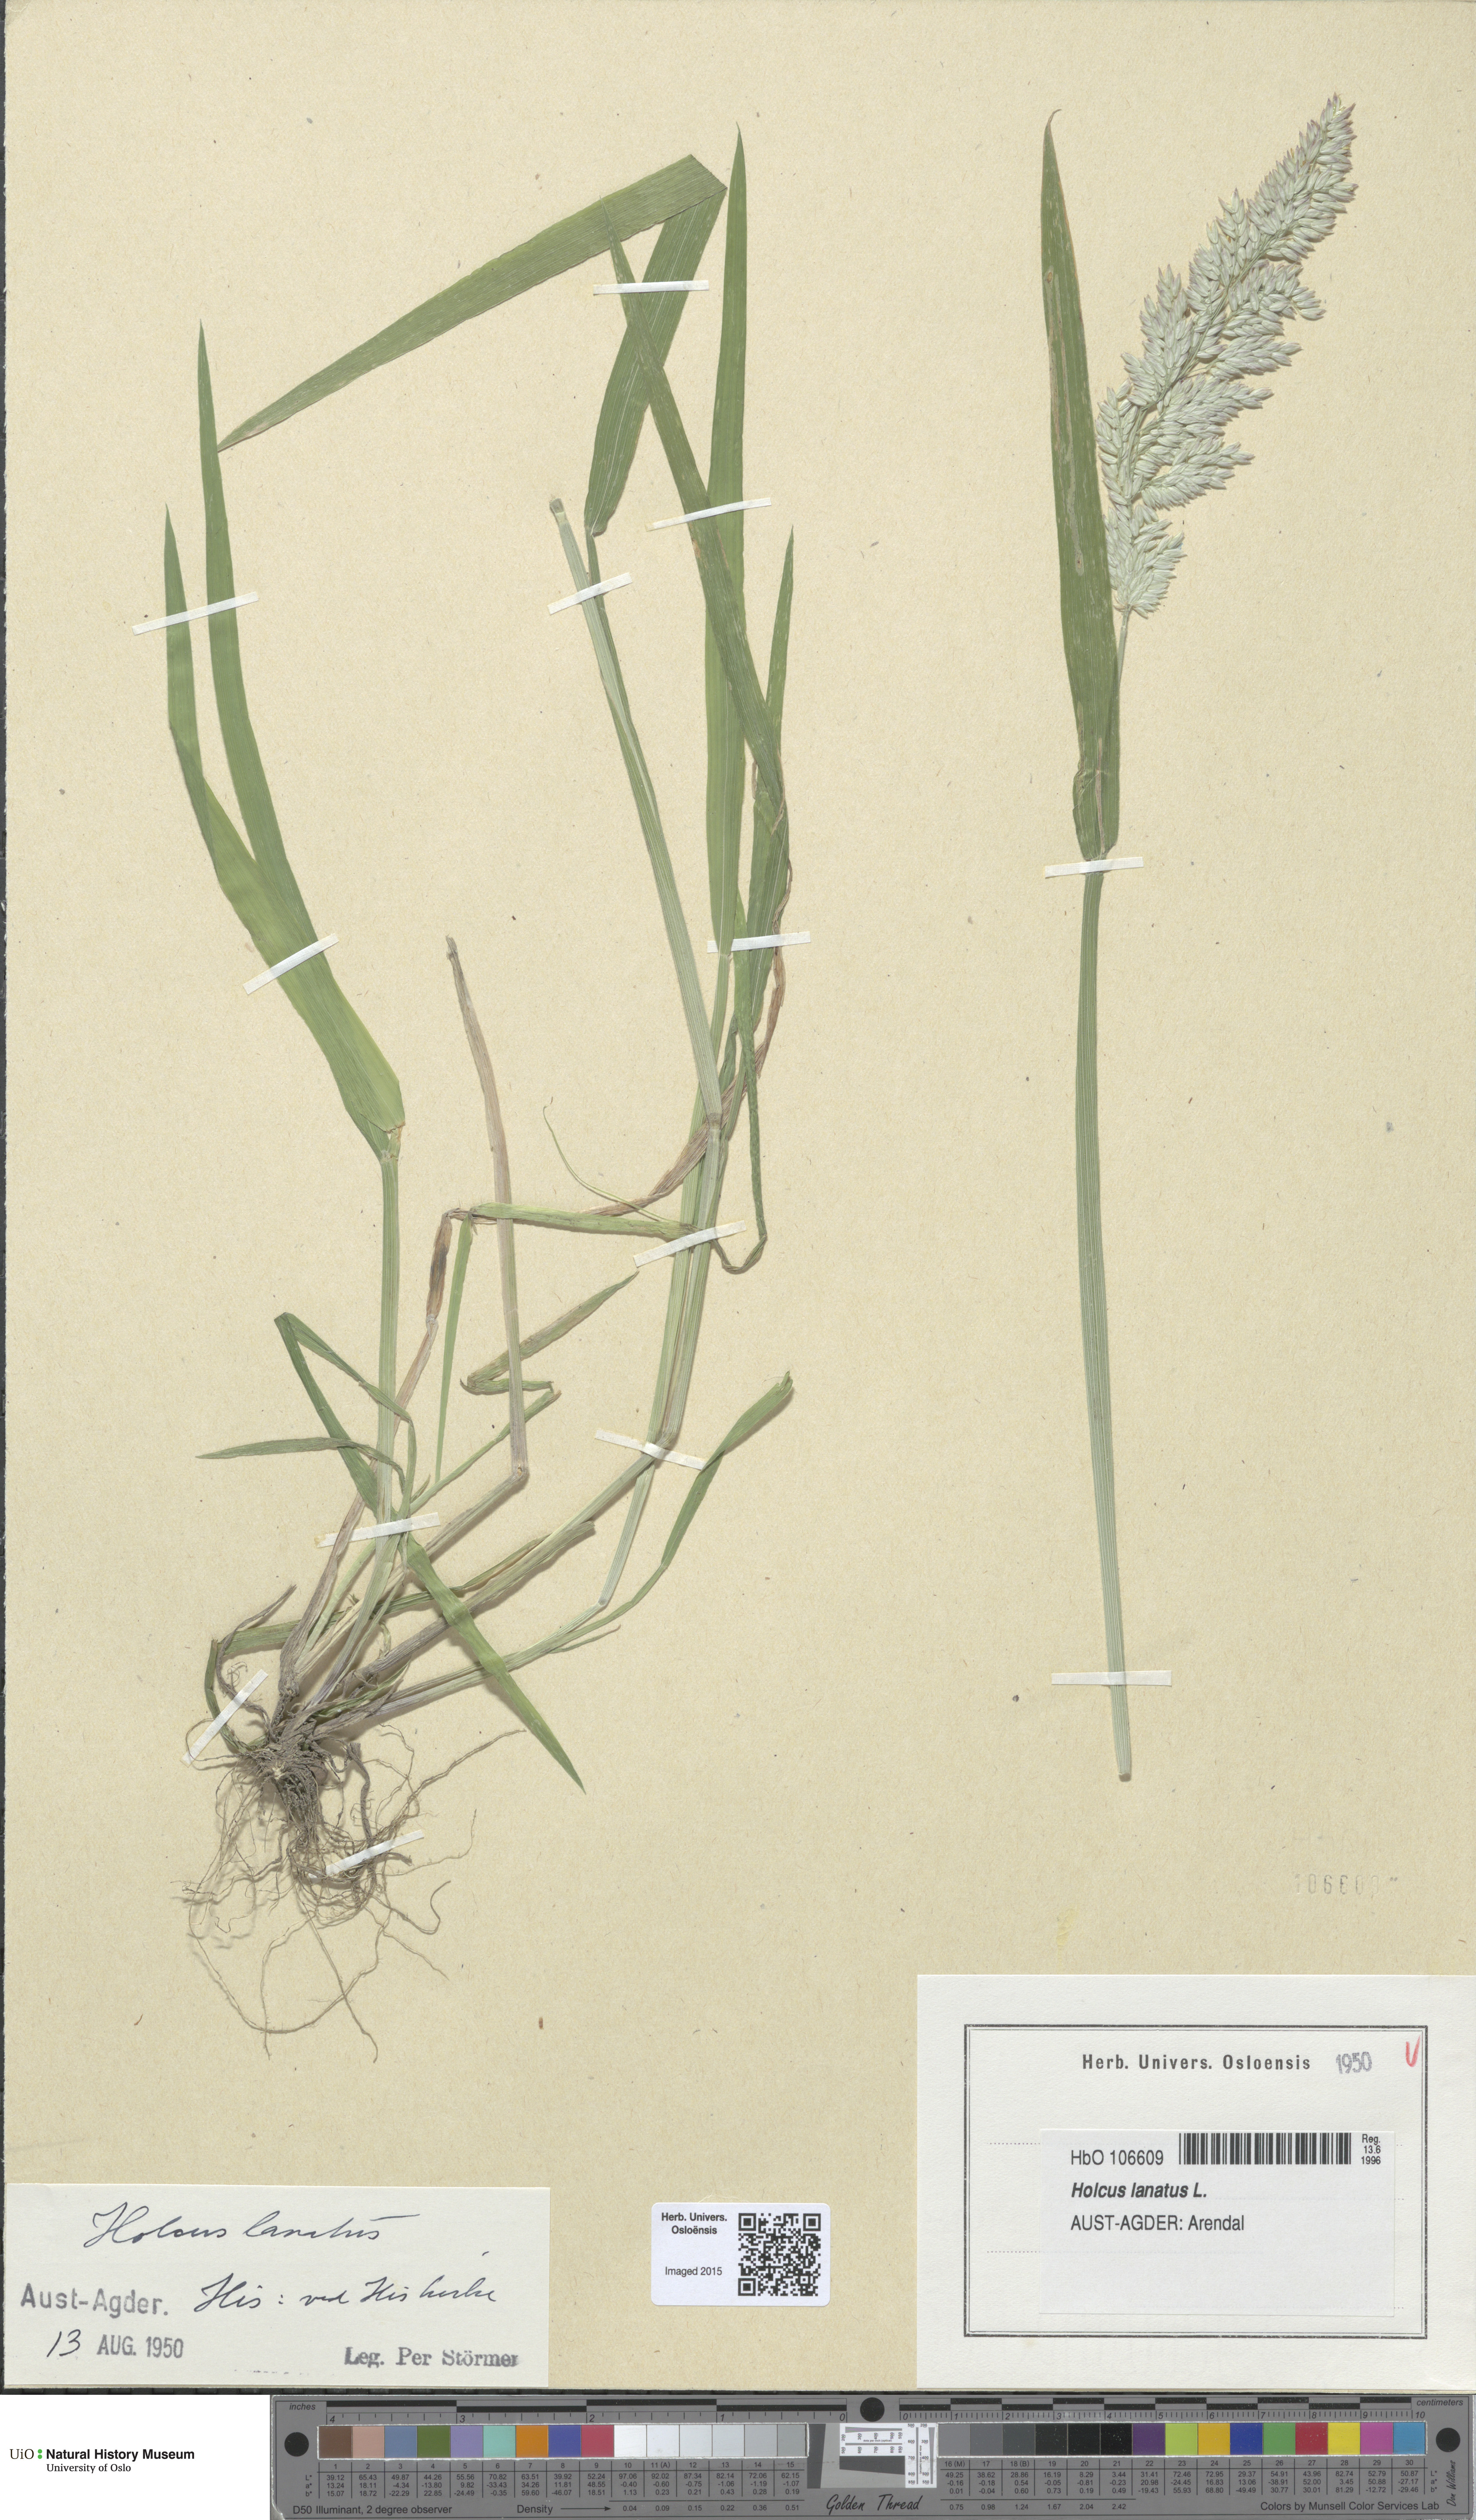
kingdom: Plantae
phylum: Tracheophyta
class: Liliopsida
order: Poales
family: Poaceae
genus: Holcus
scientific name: Holcus lanatus
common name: Yorkshire-fog
